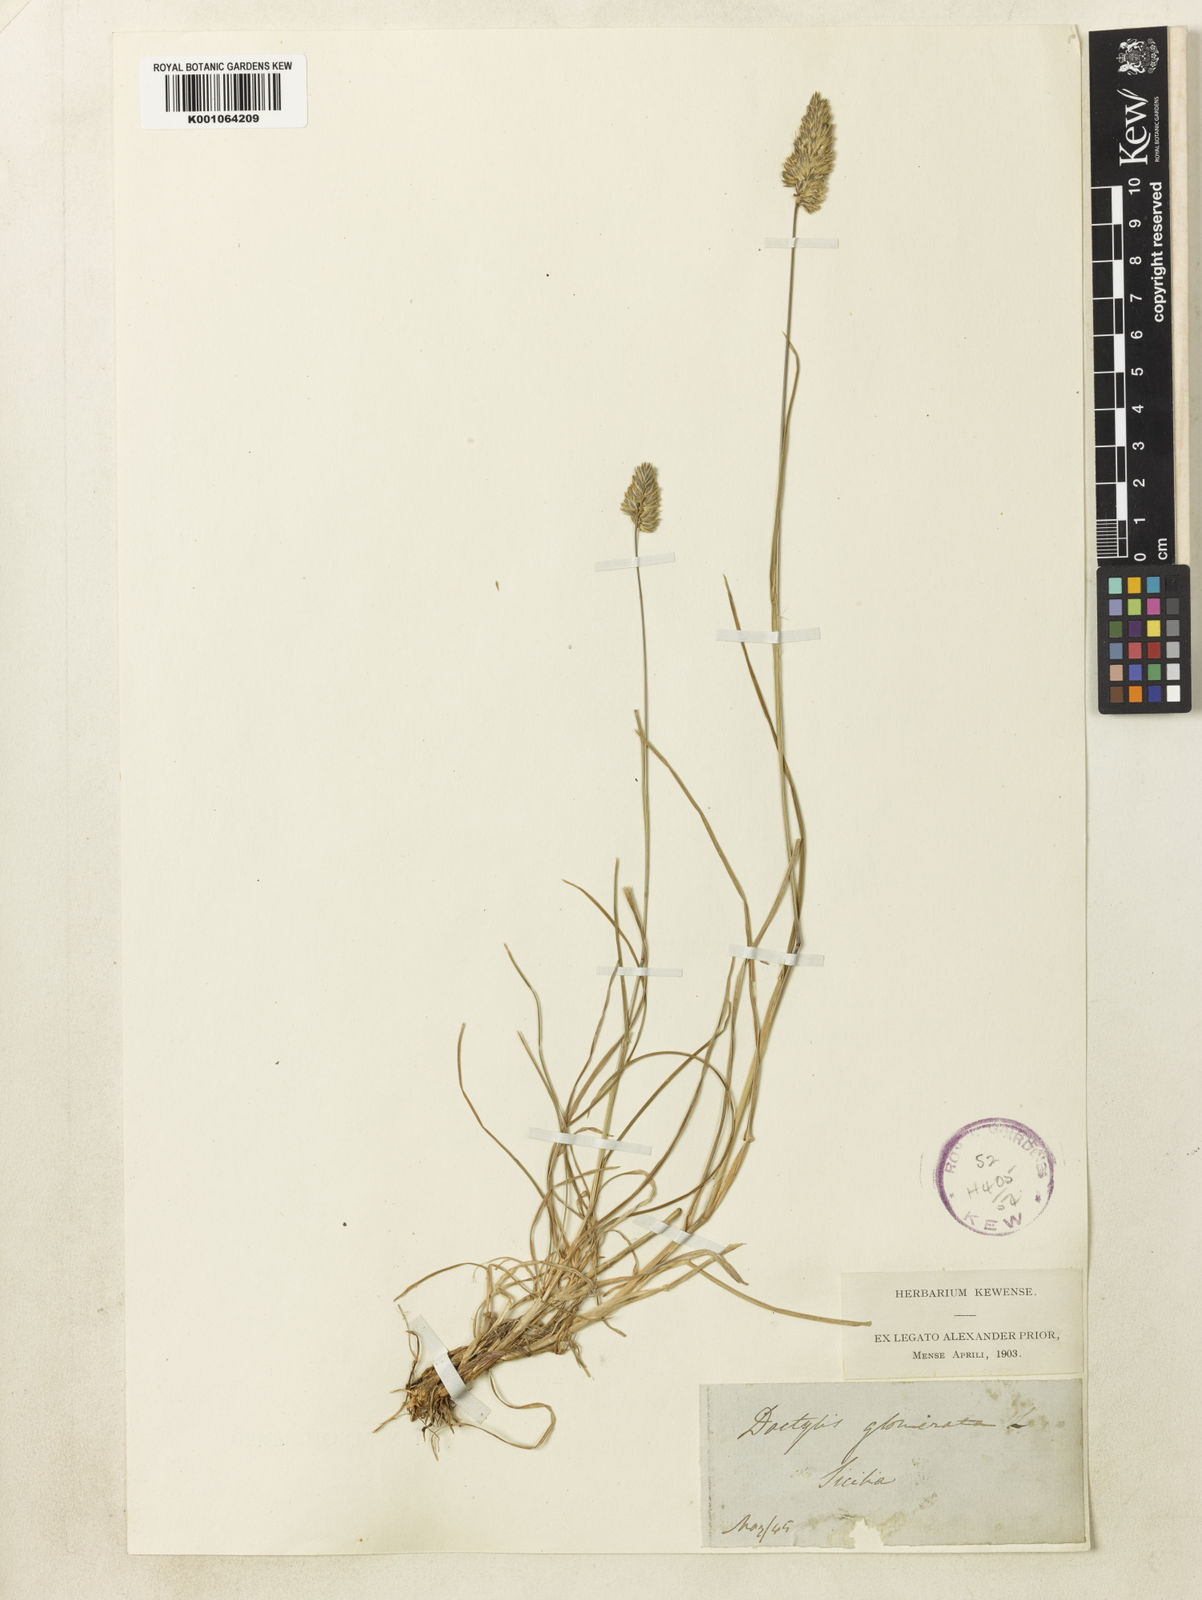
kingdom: Plantae
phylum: Tracheophyta
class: Liliopsida
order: Poales
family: Poaceae
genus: Dactylis
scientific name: Dactylis glomerata
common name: Orchardgrass
